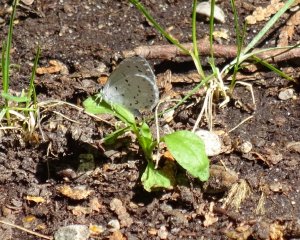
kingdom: Animalia
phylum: Arthropoda
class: Insecta
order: Lepidoptera
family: Lycaenidae
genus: Cyaniris
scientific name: Cyaniris neglecta
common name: Summer Azure
